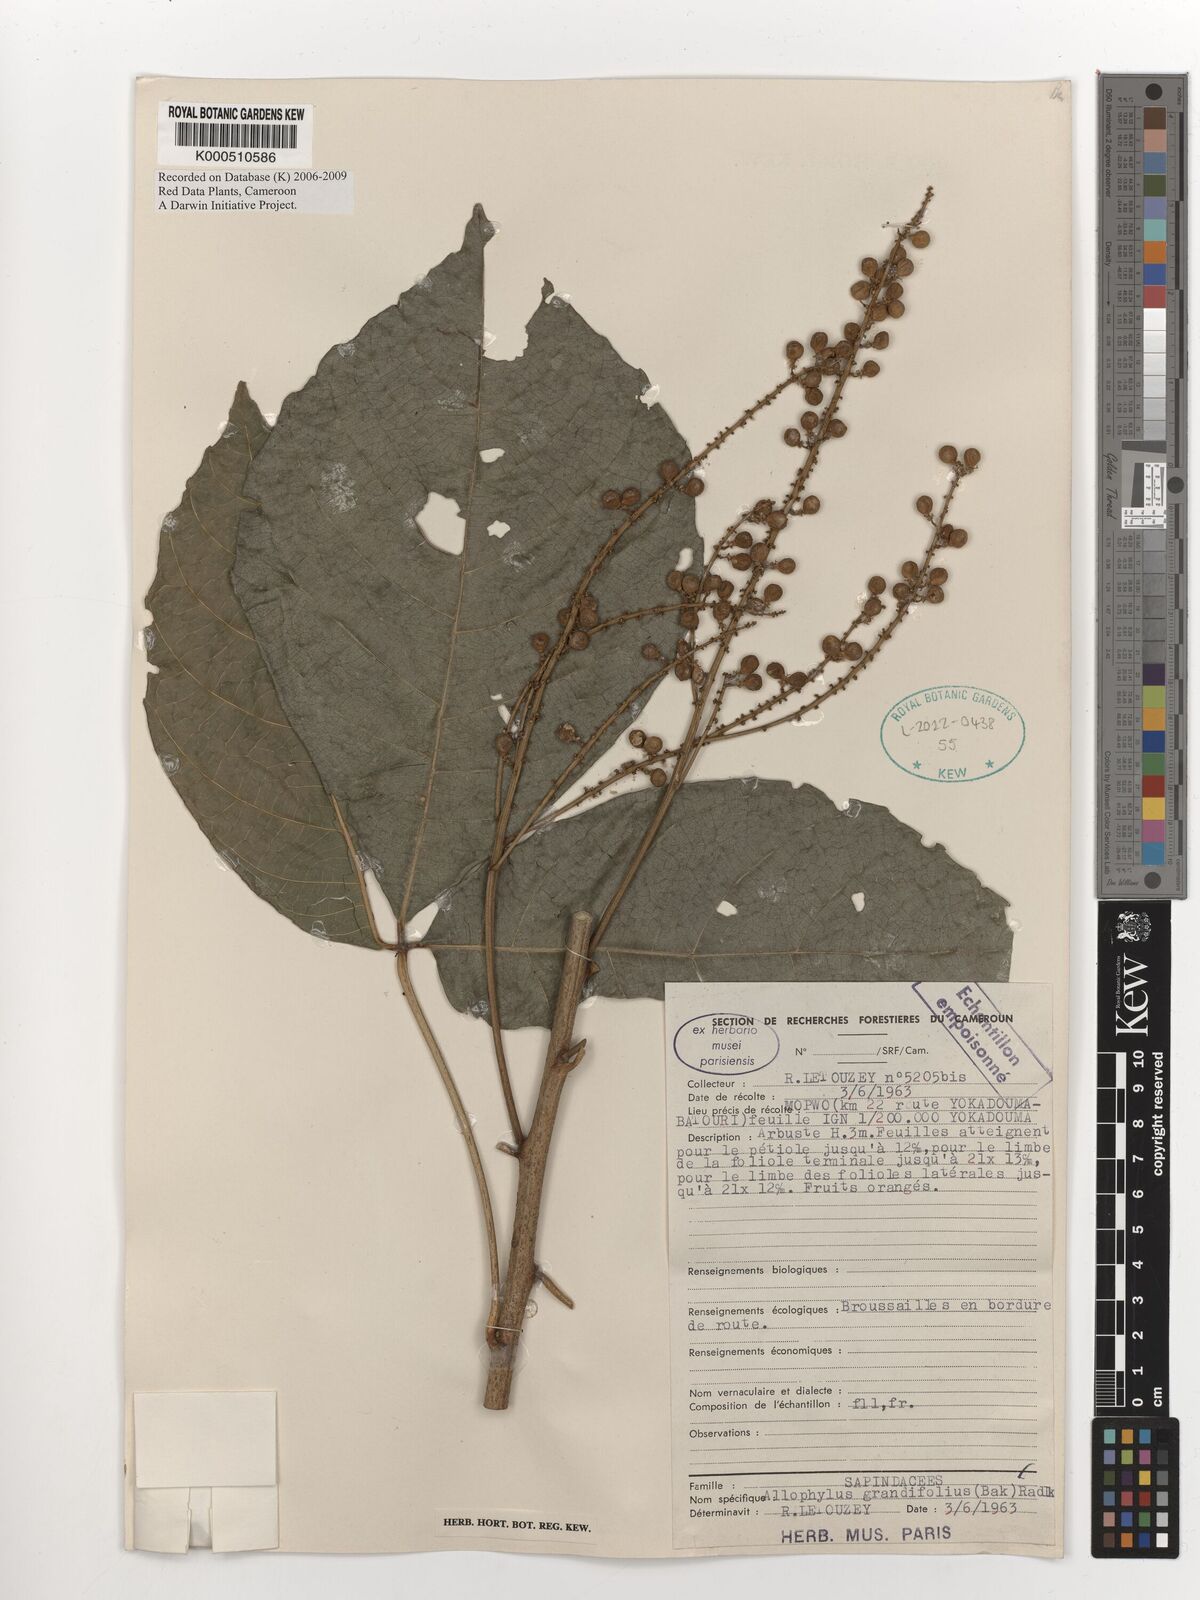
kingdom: Plantae
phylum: Tracheophyta
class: Magnoliopsida
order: Sapindales
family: Sapindaceae
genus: Allophylus
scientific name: Allophylus grandifolius
